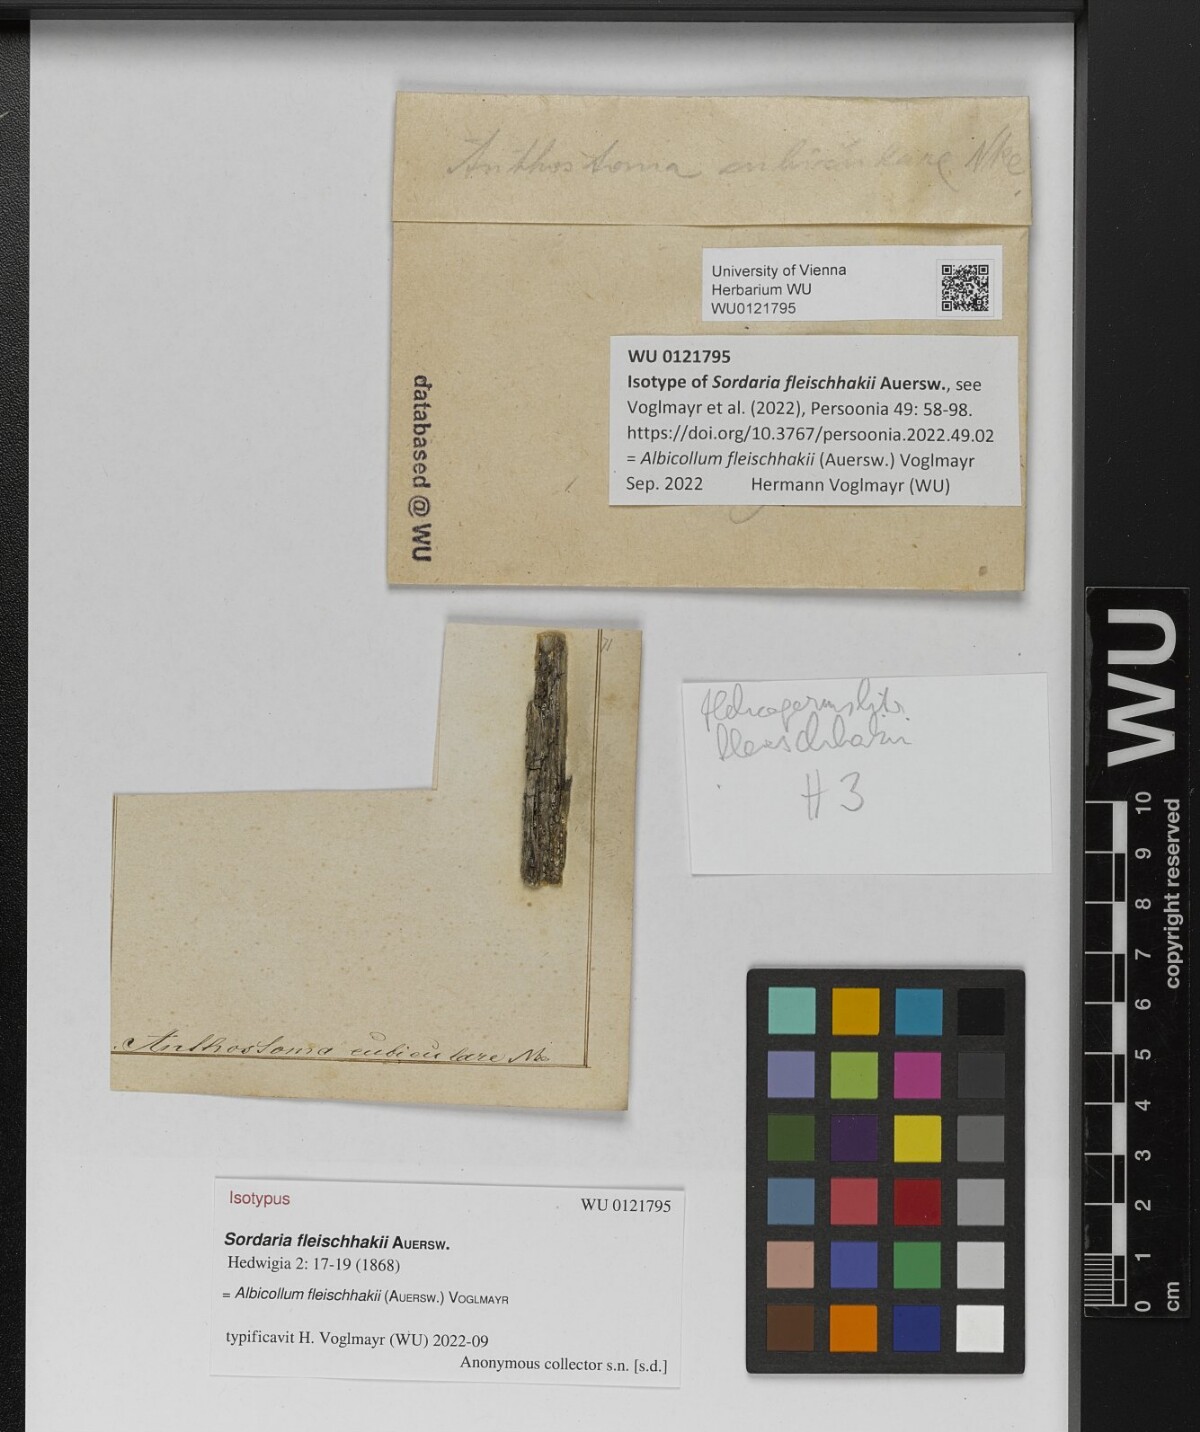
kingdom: Fungi
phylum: Ascomycota
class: Sordariomycetes
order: Xylariales
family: Xylariaceae
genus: Albicollum
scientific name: Albicollum fleischhakii
